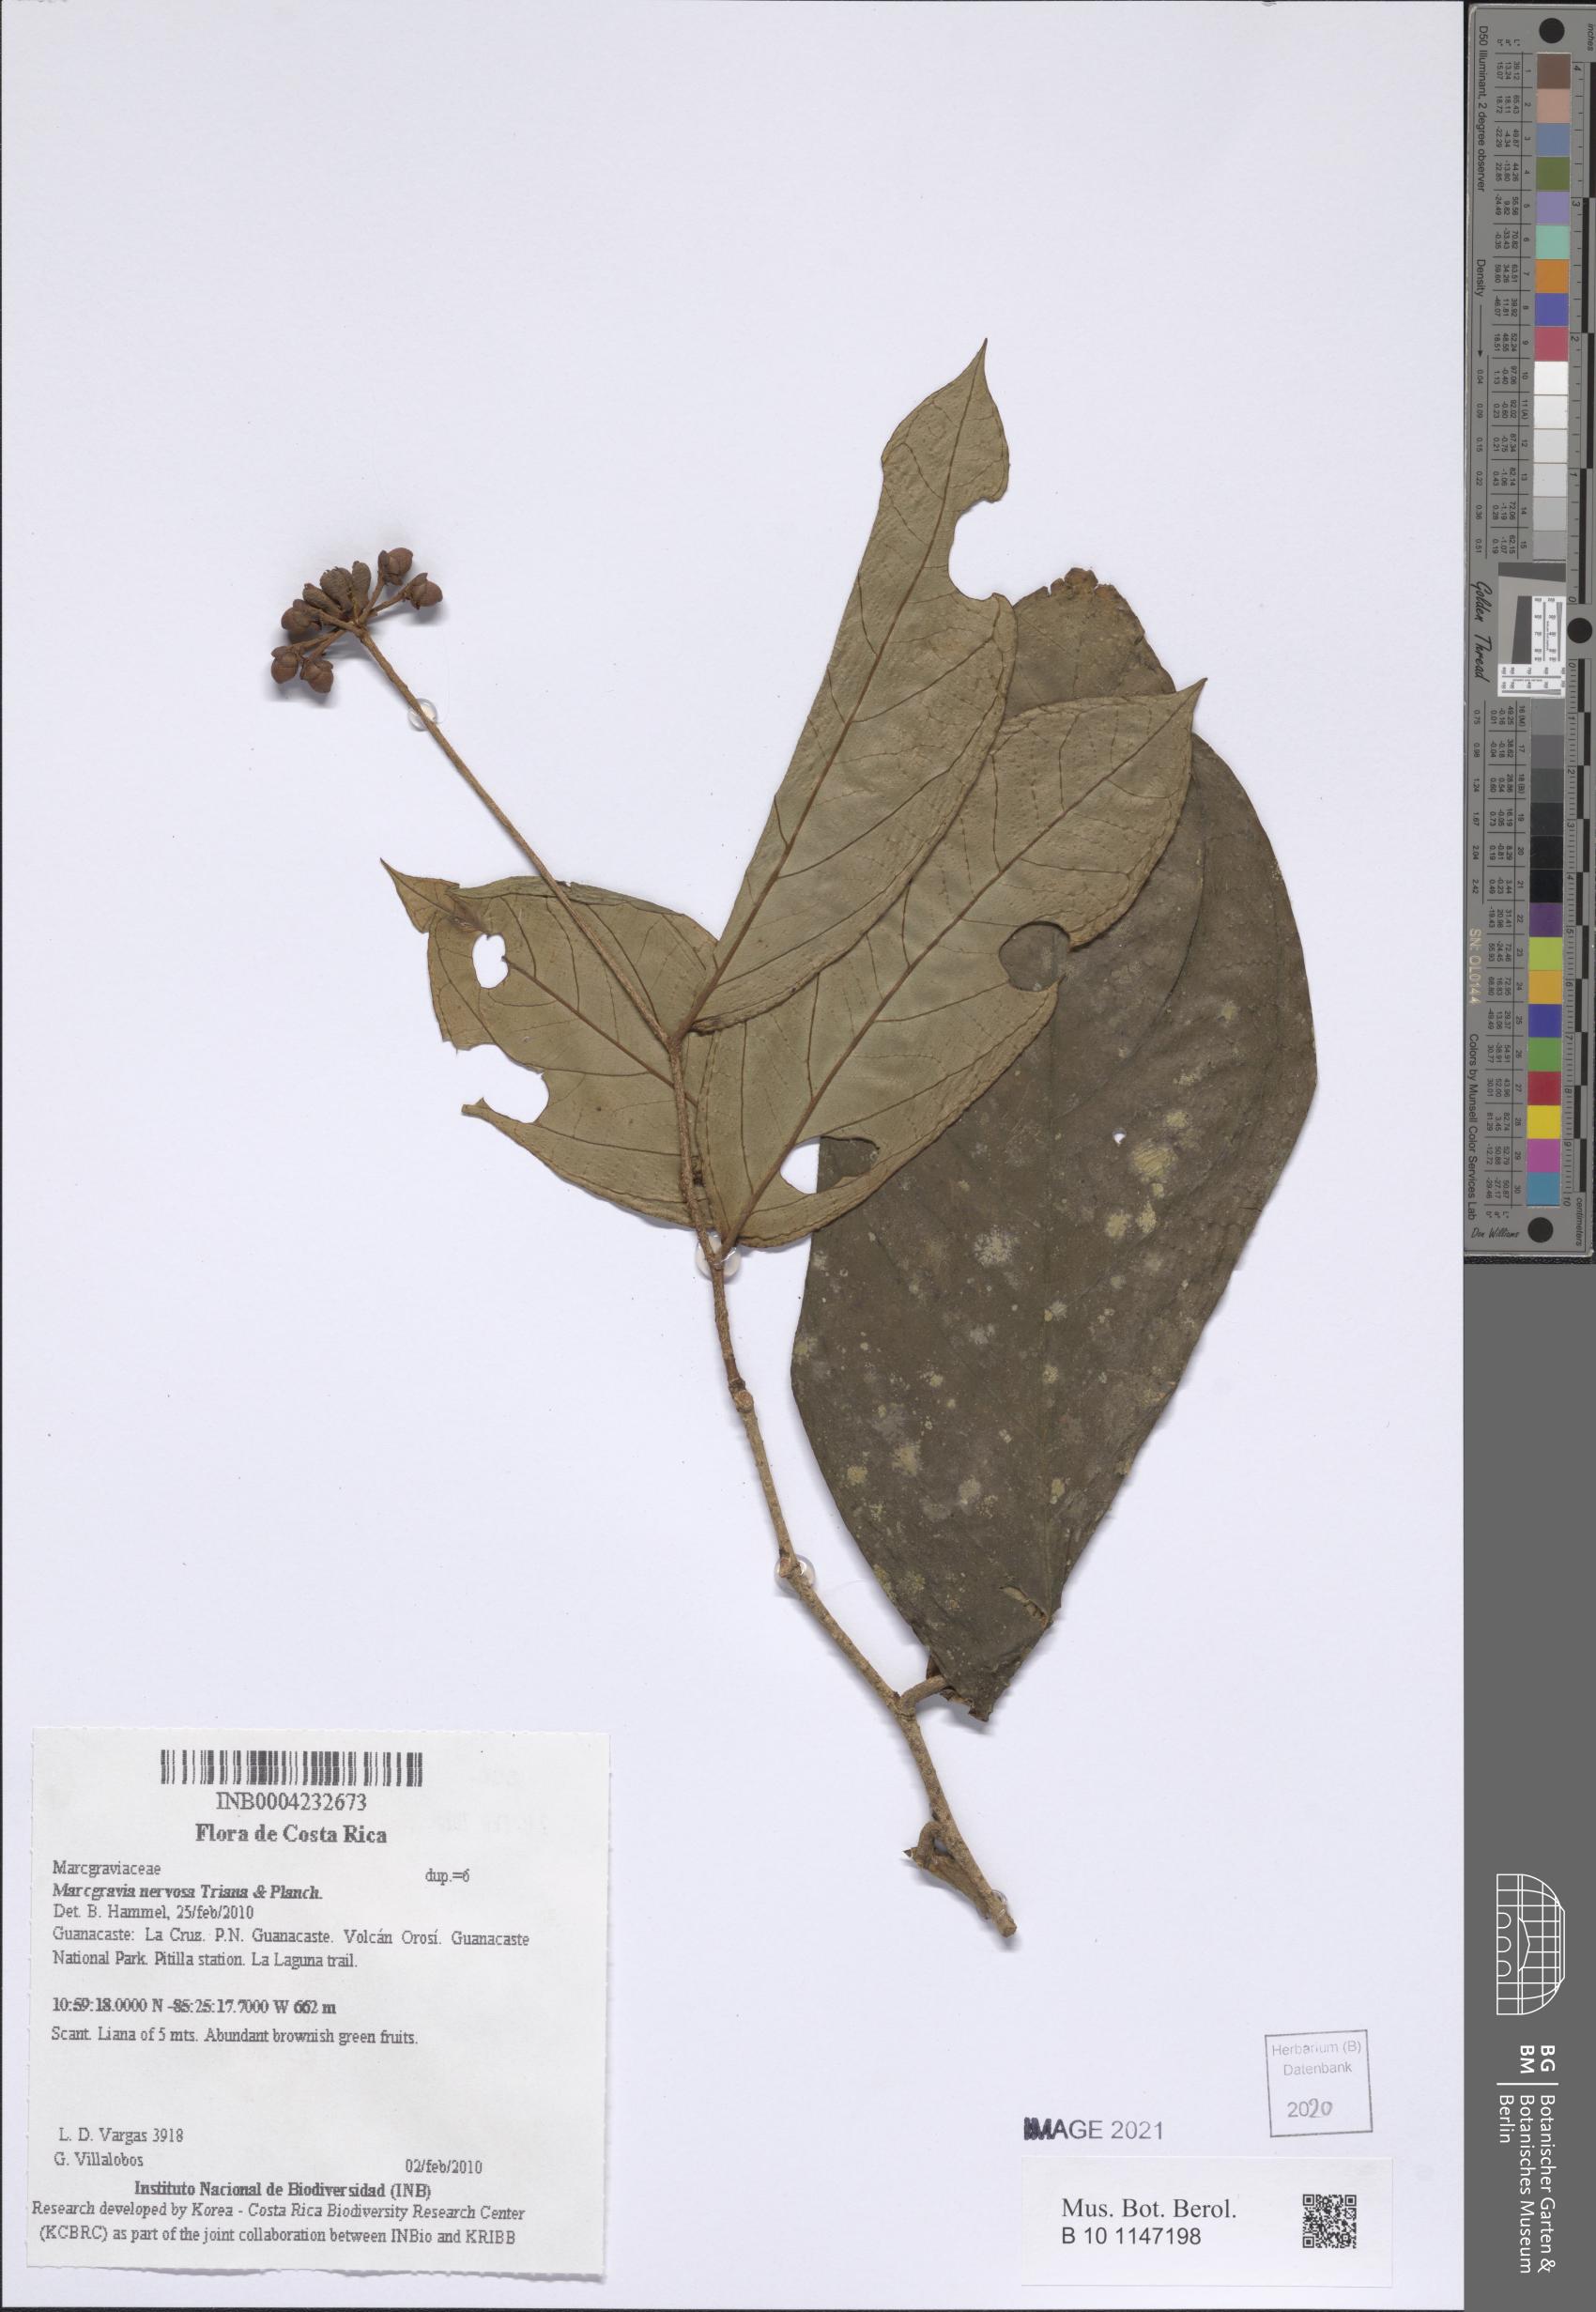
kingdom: Plantae
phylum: Tracheophyta
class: Magnoliopsida
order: Ericales
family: Marcgraviaceae
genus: Marcgravia
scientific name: Marcgravia nervosa
